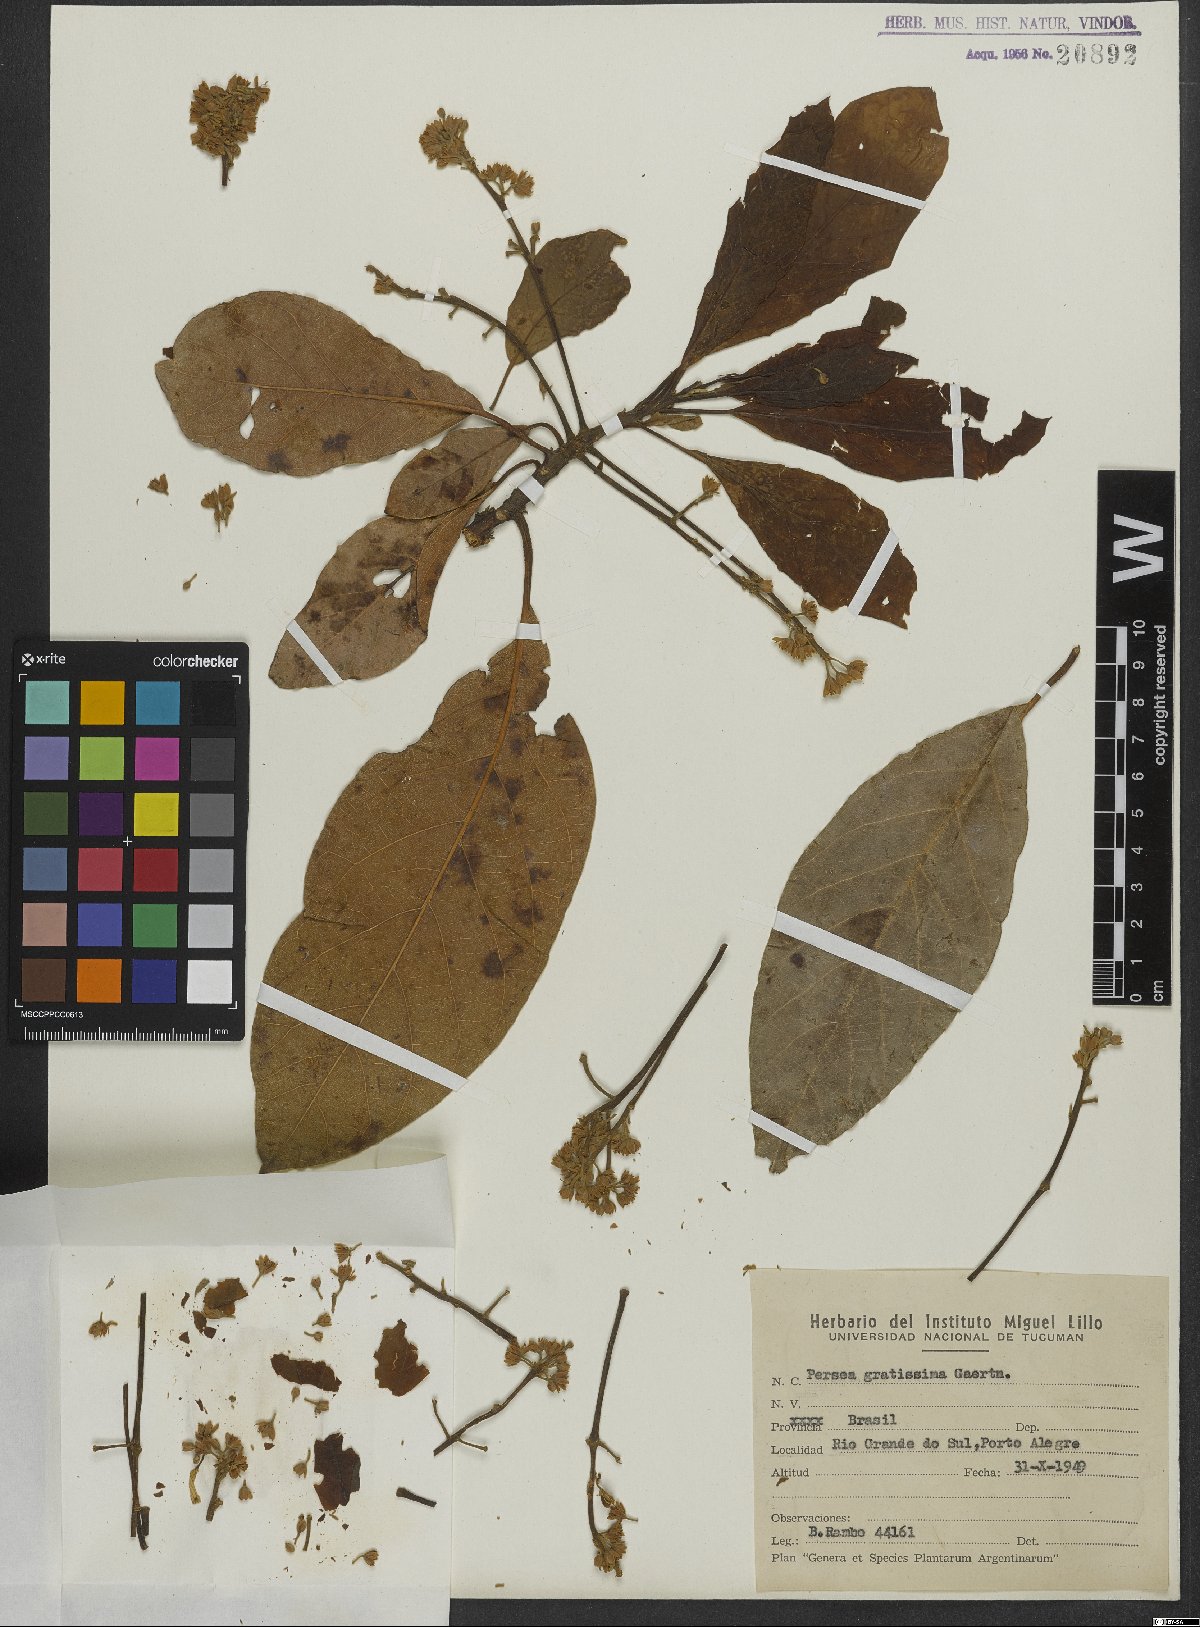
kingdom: Plantae
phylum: Tracheophyta
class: Magnoliopsida
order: Laurales
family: Lauraceae
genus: Persea
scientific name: Persea americana
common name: Avocado
